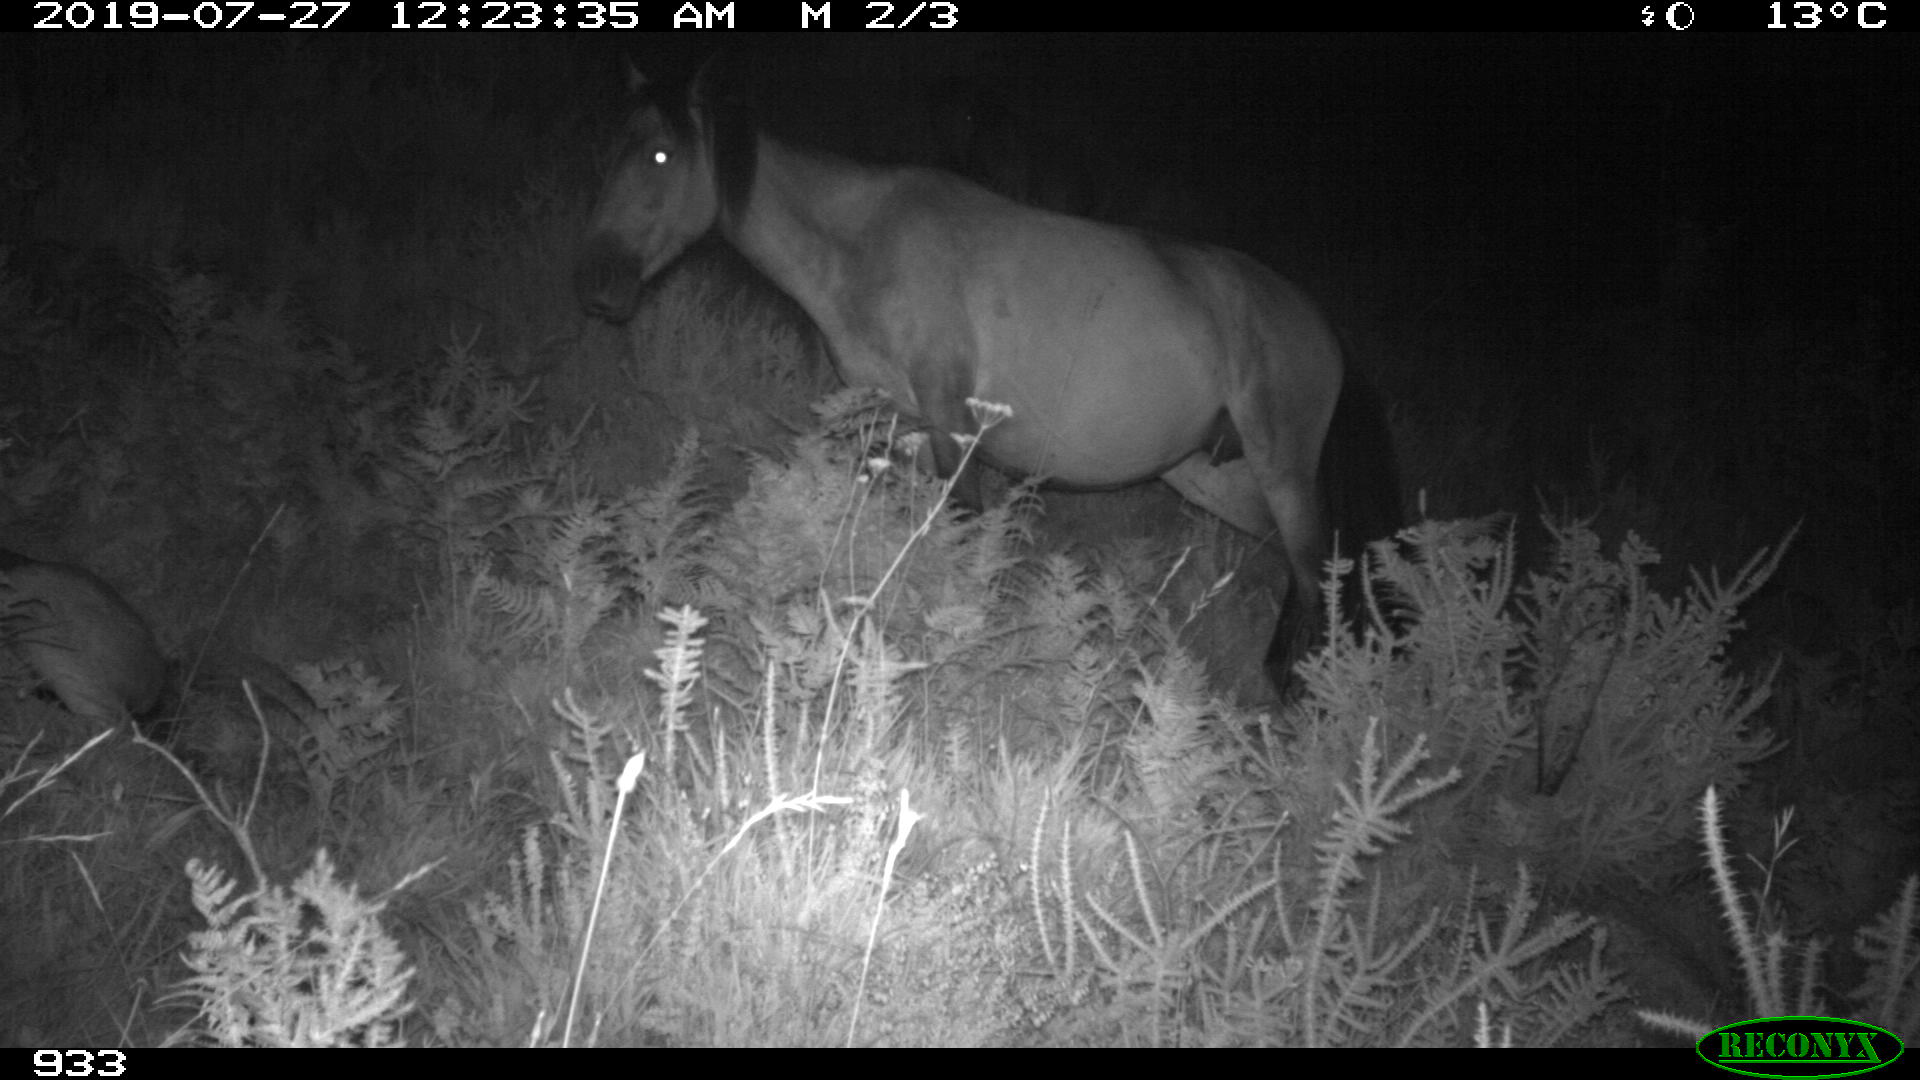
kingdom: Animalia
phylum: Chordata
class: Mammalia
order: Perissodactyla
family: Equidae
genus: Equus
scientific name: Equus caballus
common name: Horse
